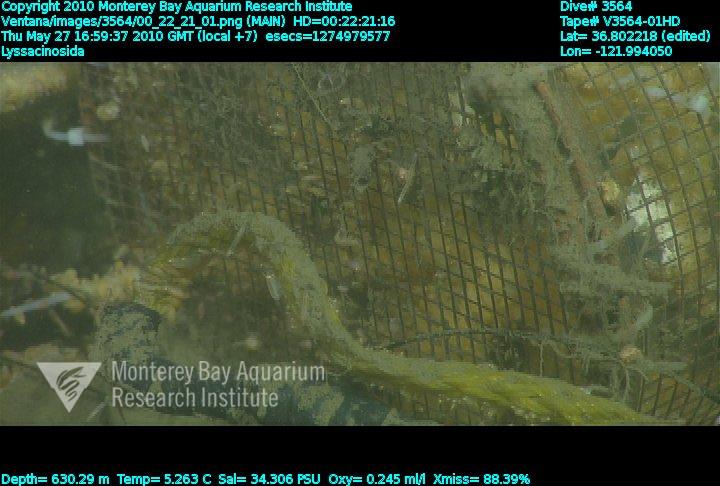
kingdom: Animalia
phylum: Porifera
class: Hexactinellida
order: Lyssacinosida
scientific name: Lyssacinosida
